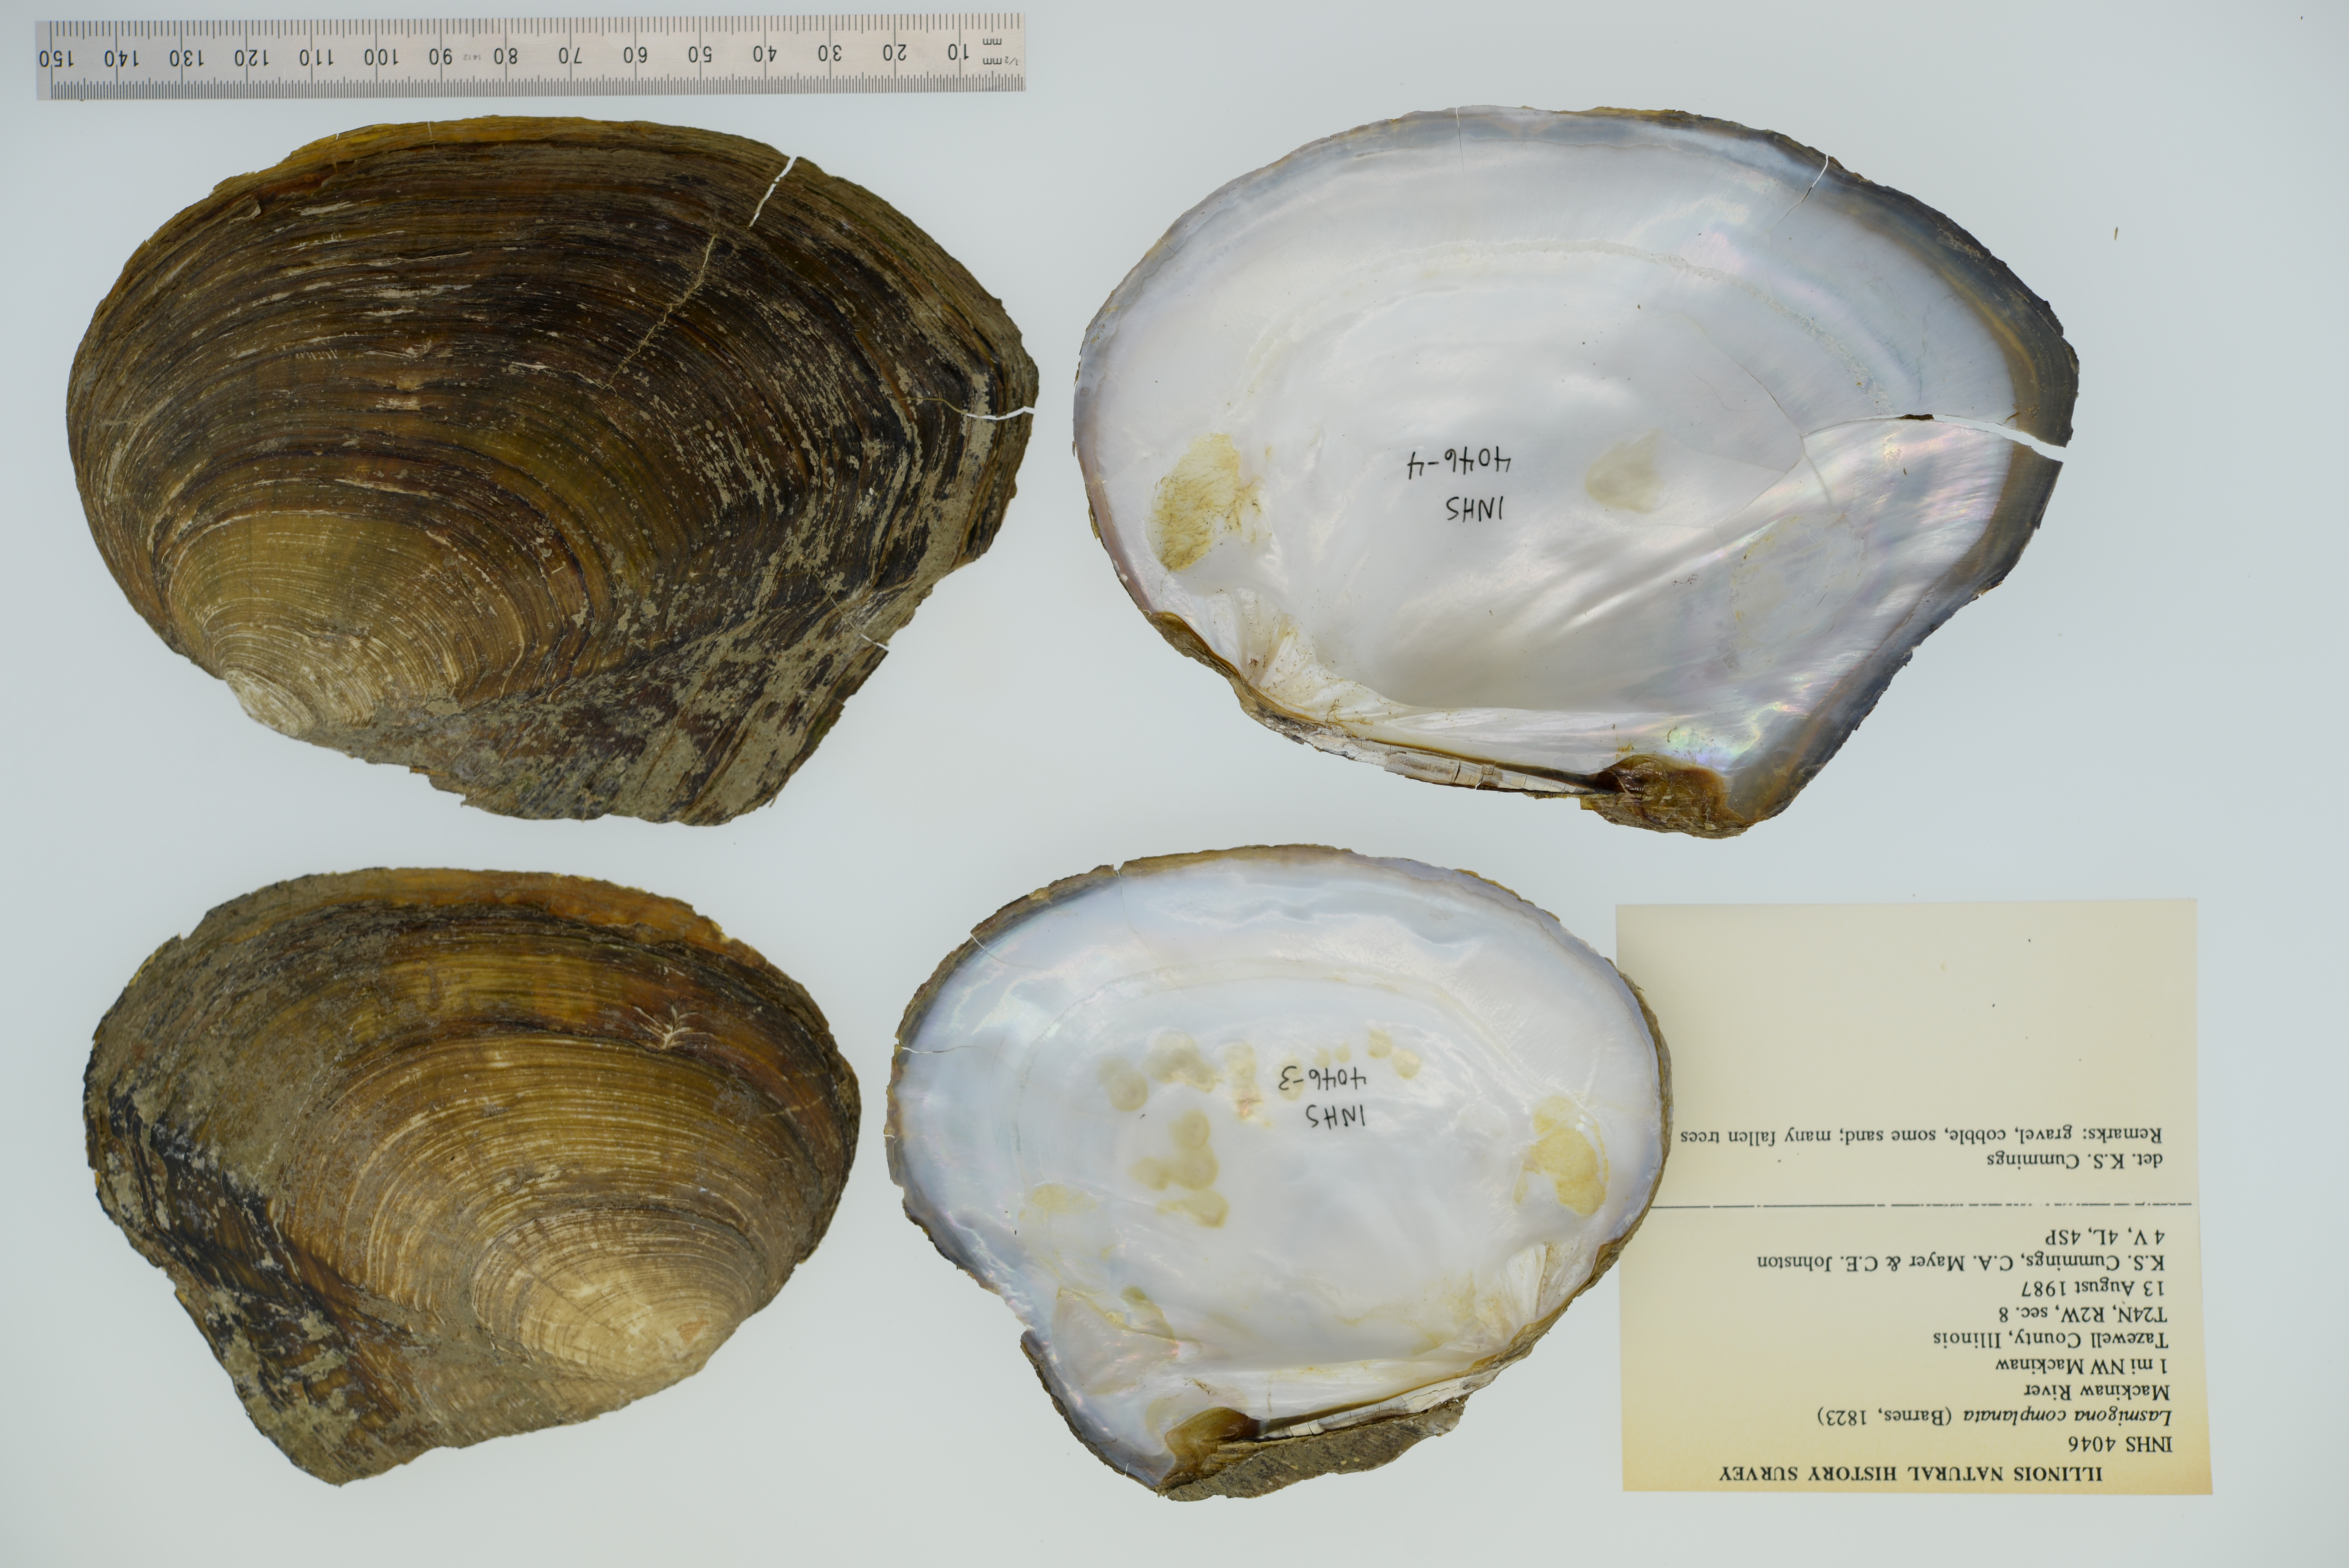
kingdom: Animalia
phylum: Mollusca
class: Bivalvia
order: Unionida
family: Unionidae
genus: Lasmigona
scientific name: Lasmigona complanata
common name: White heelsplitter
